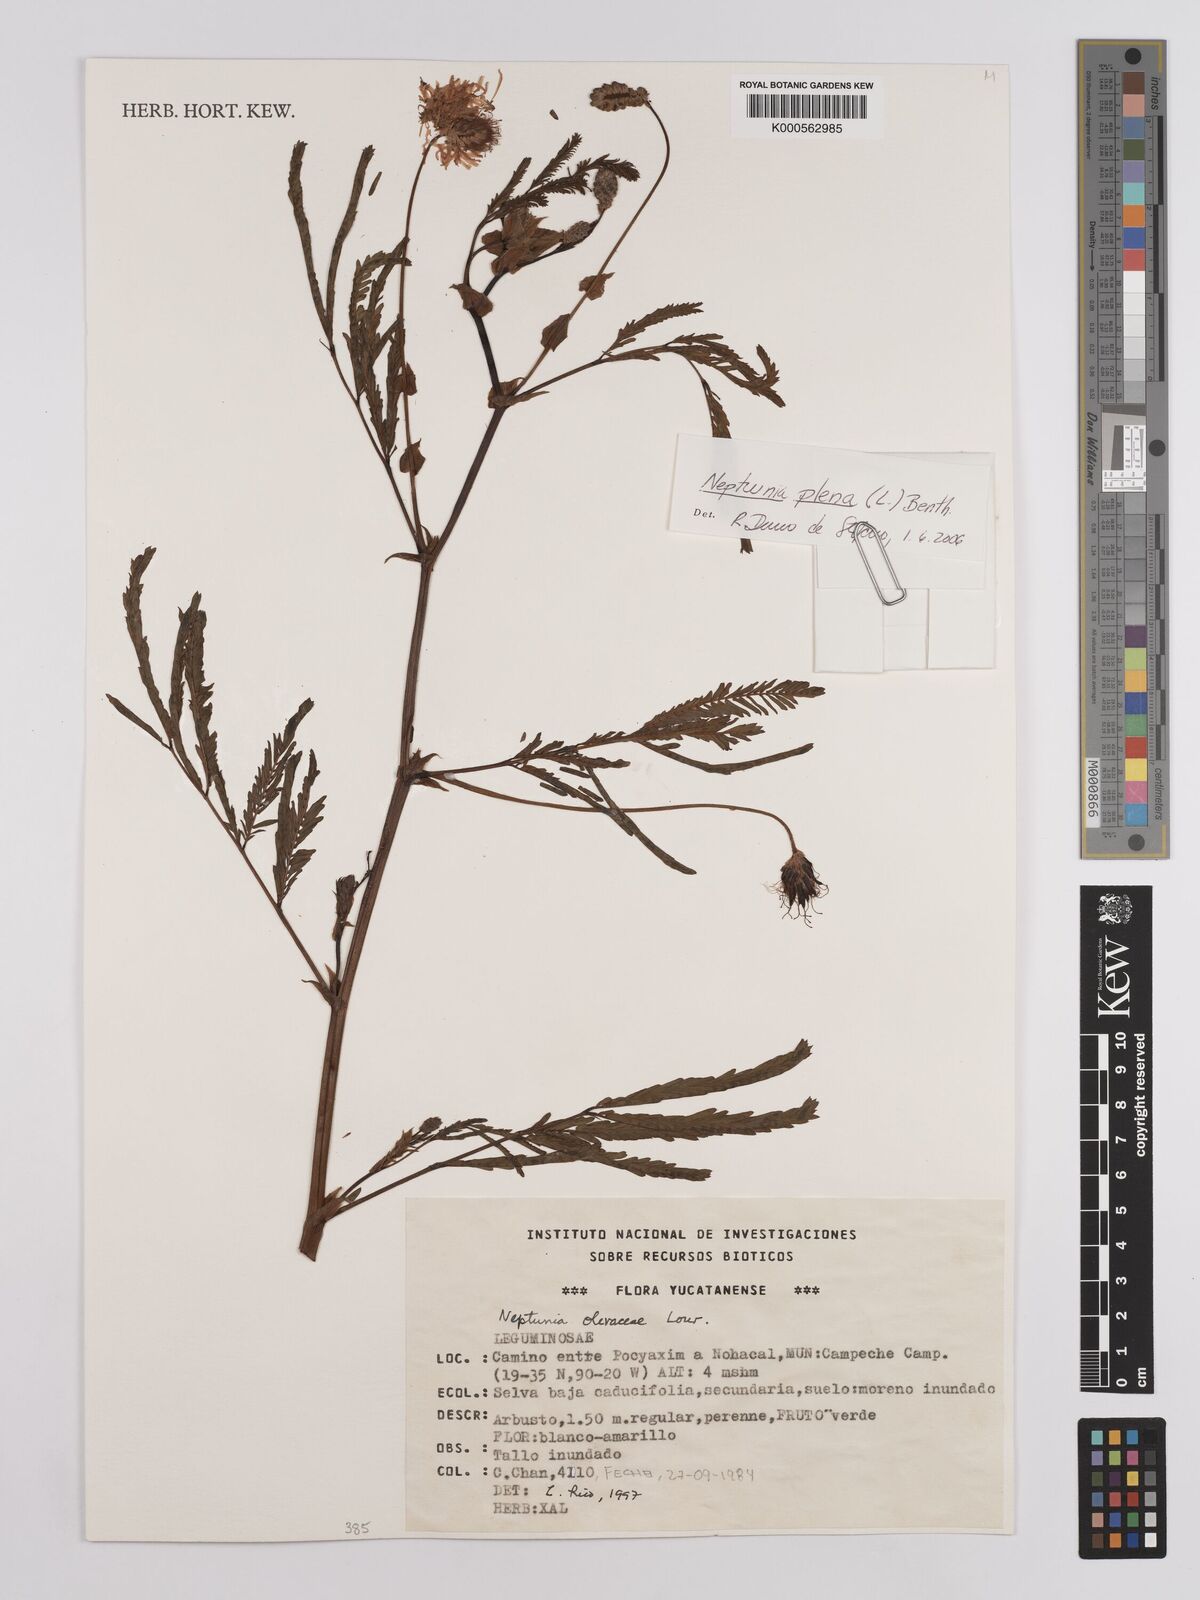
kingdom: Plantae
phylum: Tracheophyta
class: Magnoliopsida
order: Fabales
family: Fabaceae
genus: Neptunia
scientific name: Neptunia plena
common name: Dead and awake
